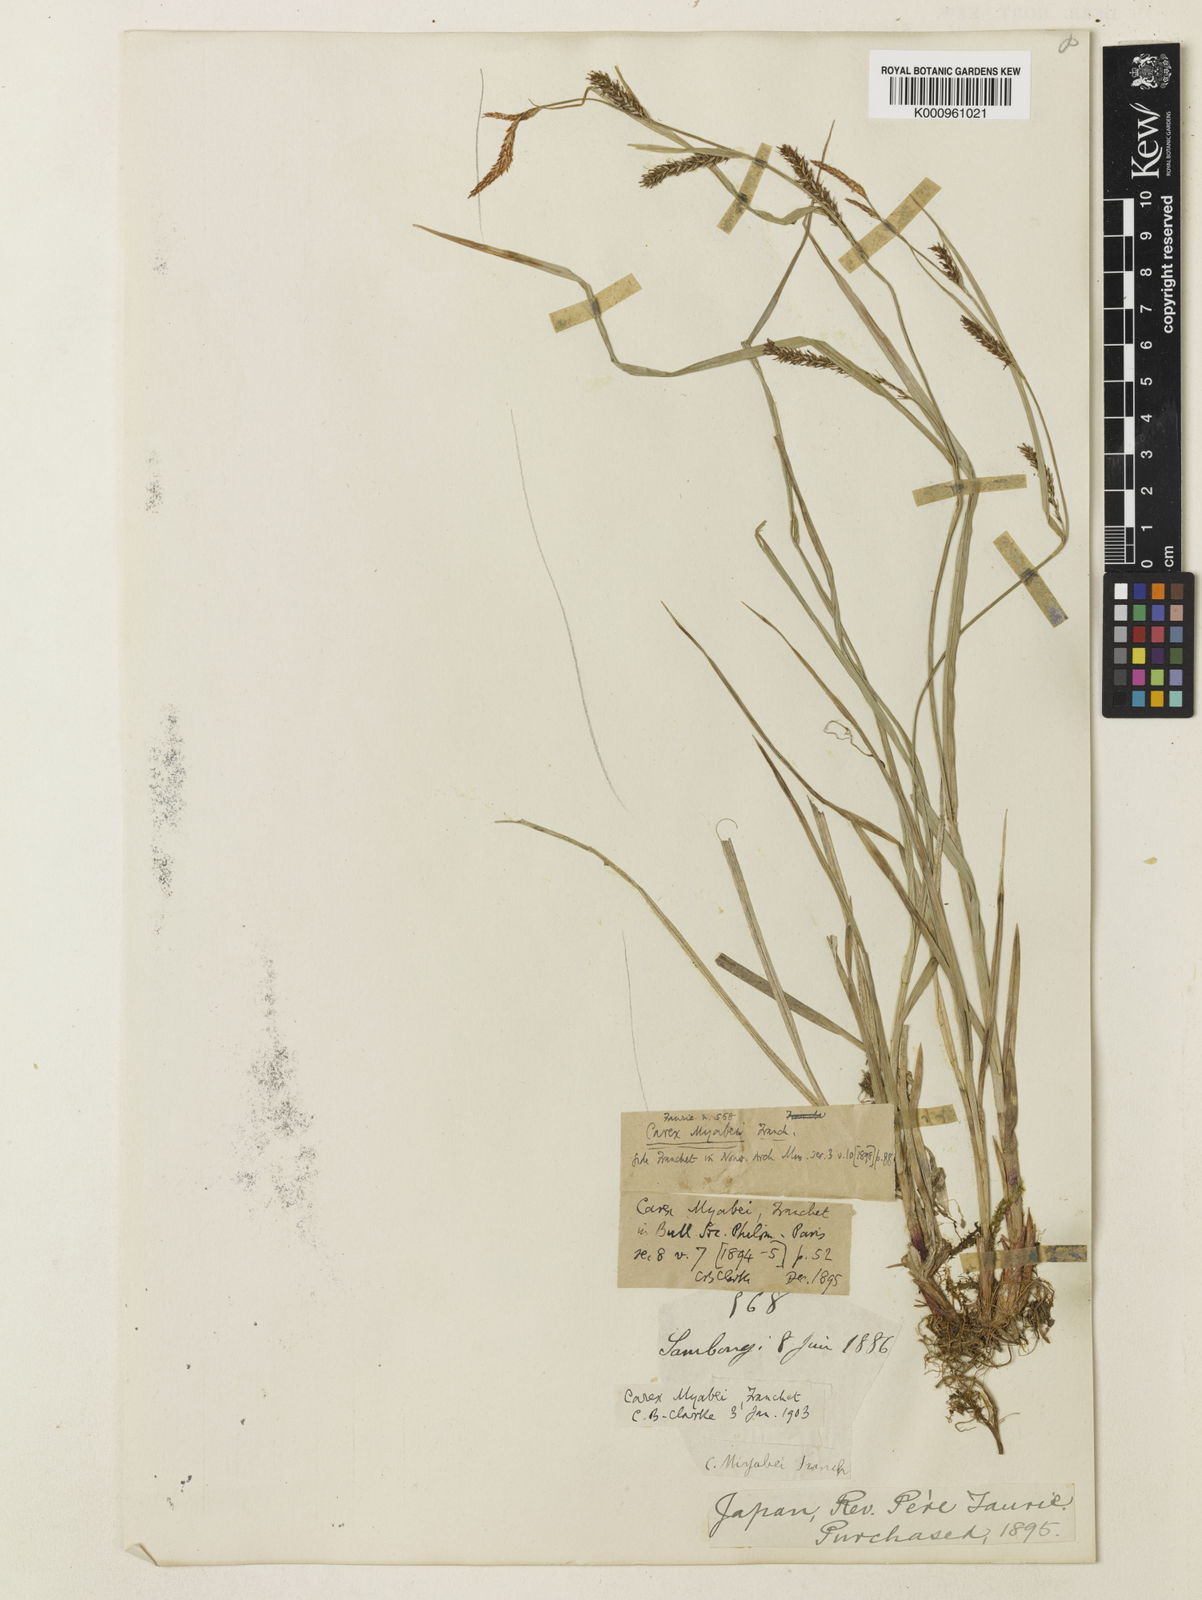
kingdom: Plantae
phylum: Tracheophyta
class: Liliopsida
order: Poales
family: Cyperaceae
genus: Carex
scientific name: Carex wallichiana
